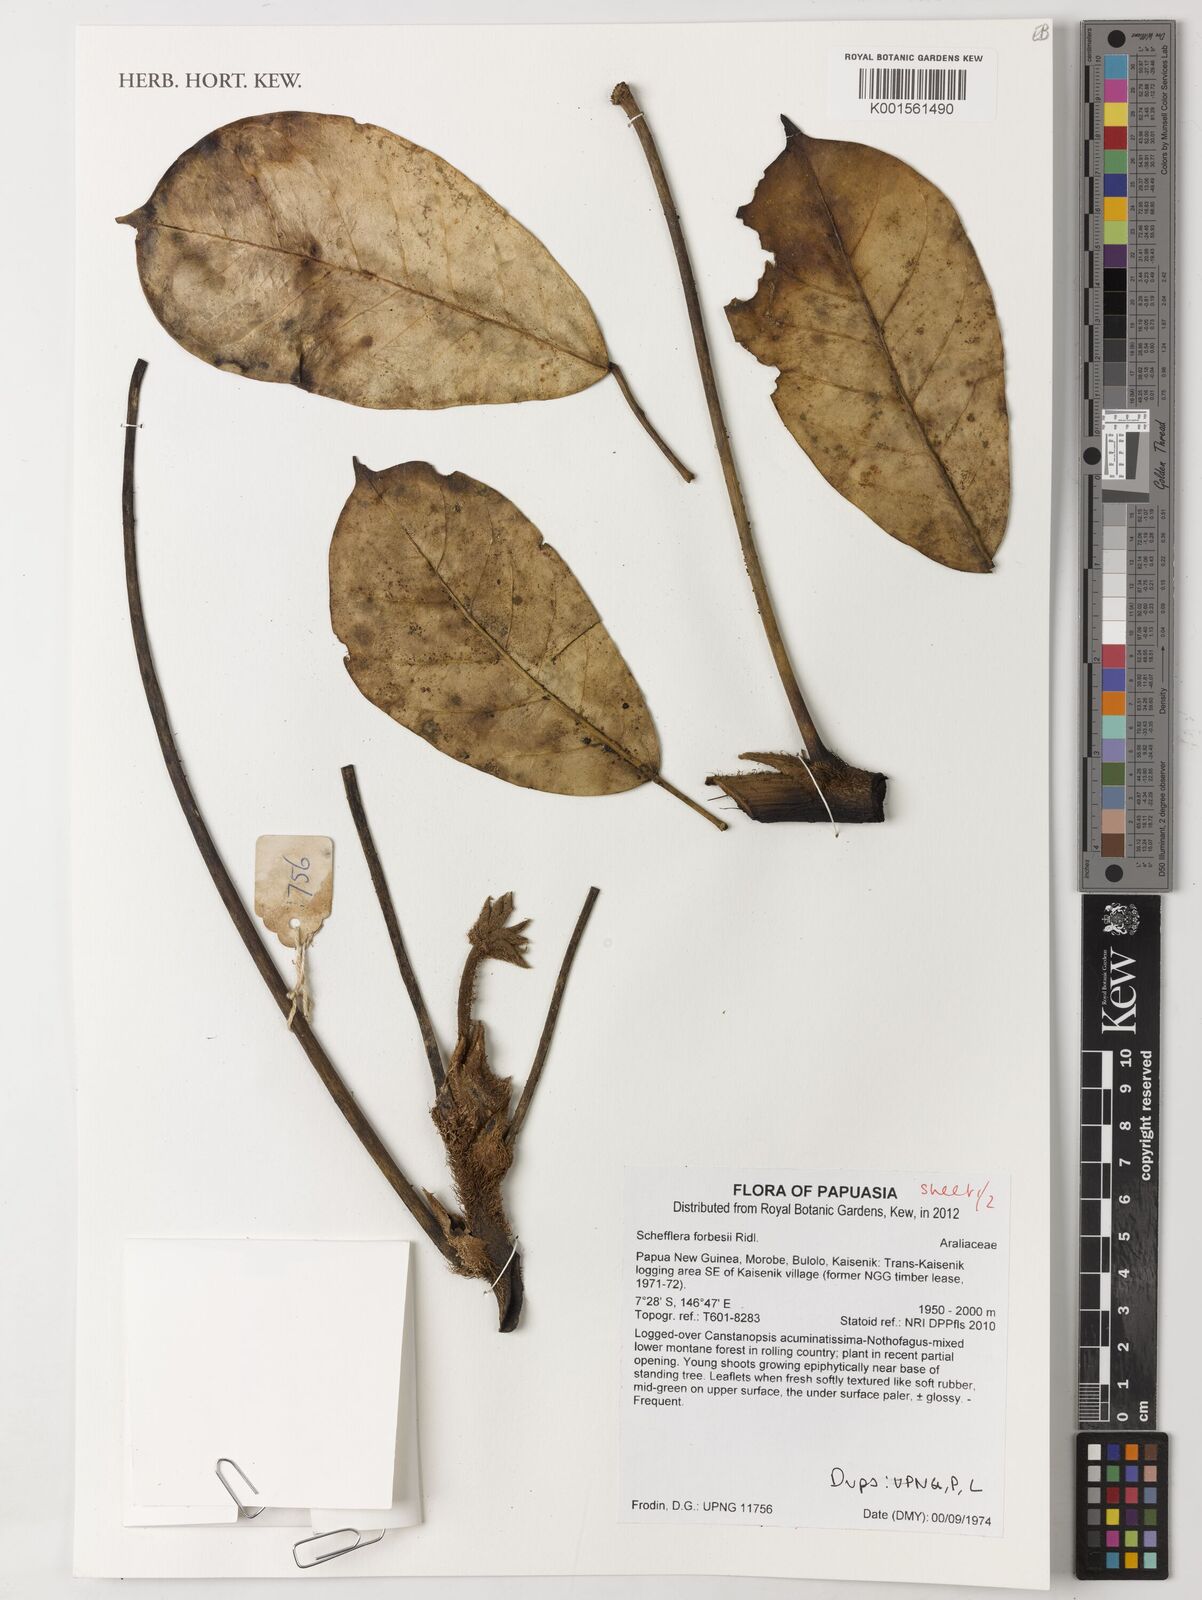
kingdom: Plantae
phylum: Tracheophyta
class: Magnoliopsida
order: Apiales
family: Araliaceae
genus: Heptapleurum
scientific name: Heptapleurum forbesii
